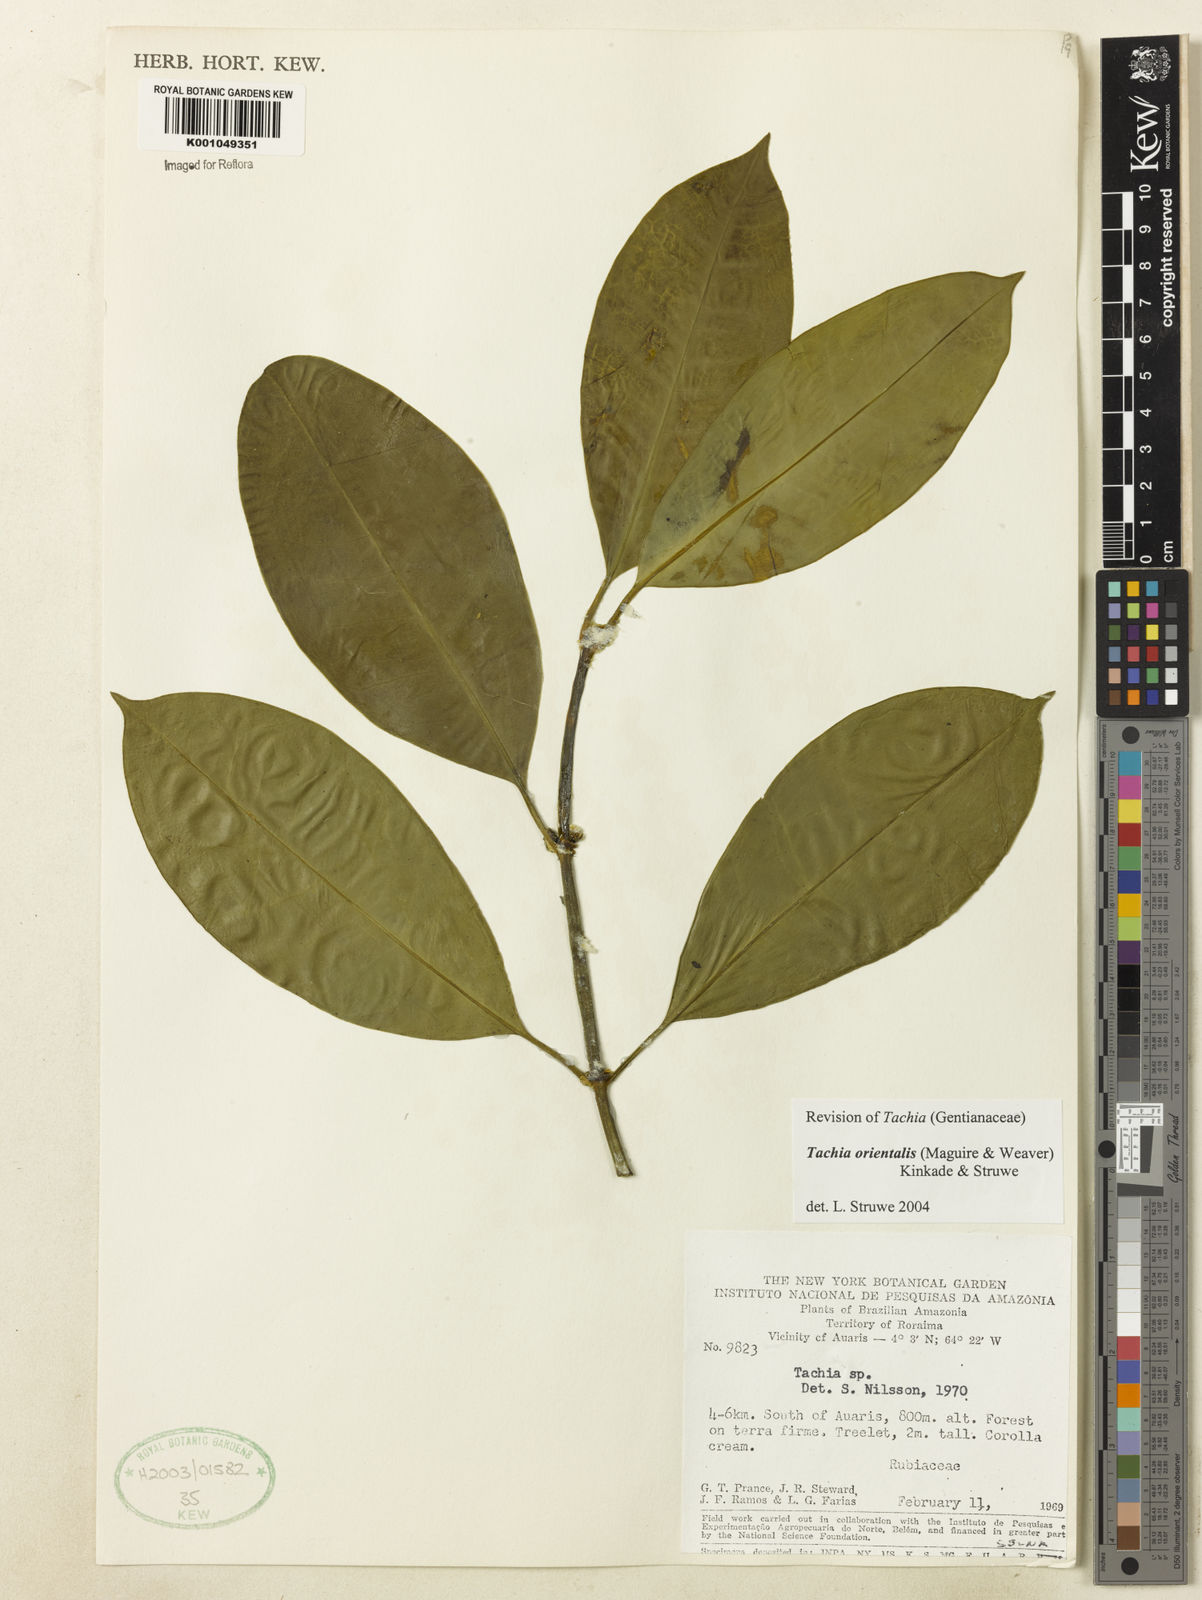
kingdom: Plantae
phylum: Tracheophyta
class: Magnoliopsida
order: Gentianales
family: Gentianaceae
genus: Tachia
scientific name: Tachia orientalis
